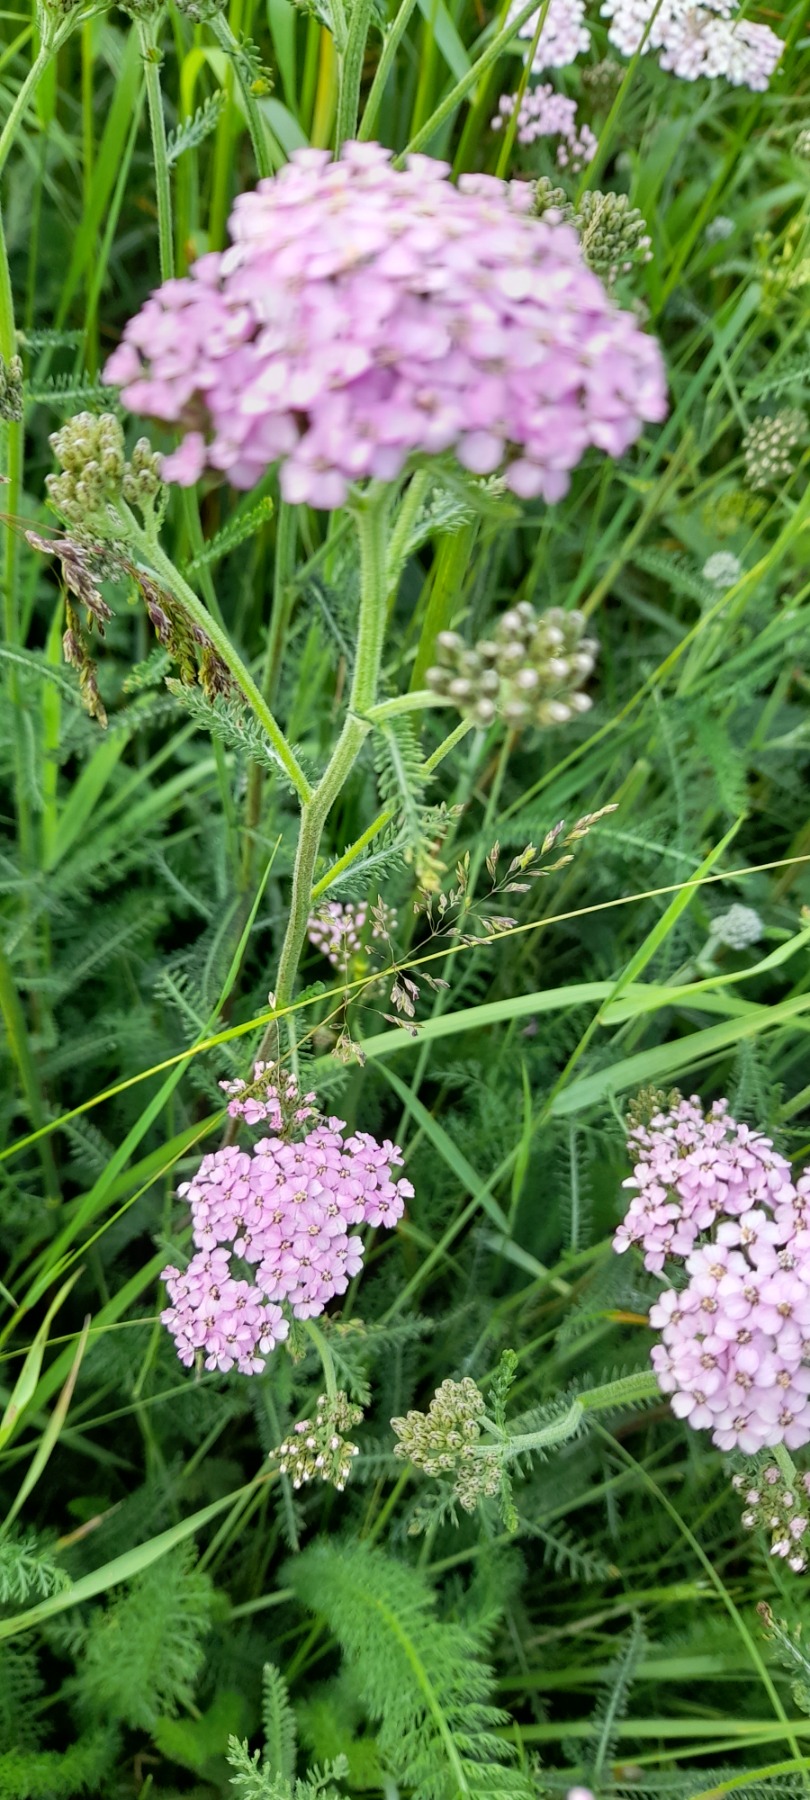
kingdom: Plantae
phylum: Tracheophyta
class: Magnoliopsida
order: Asterales
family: Asteraceae
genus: Achillea
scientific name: Achillea millefolium
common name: Almindelig røllike
